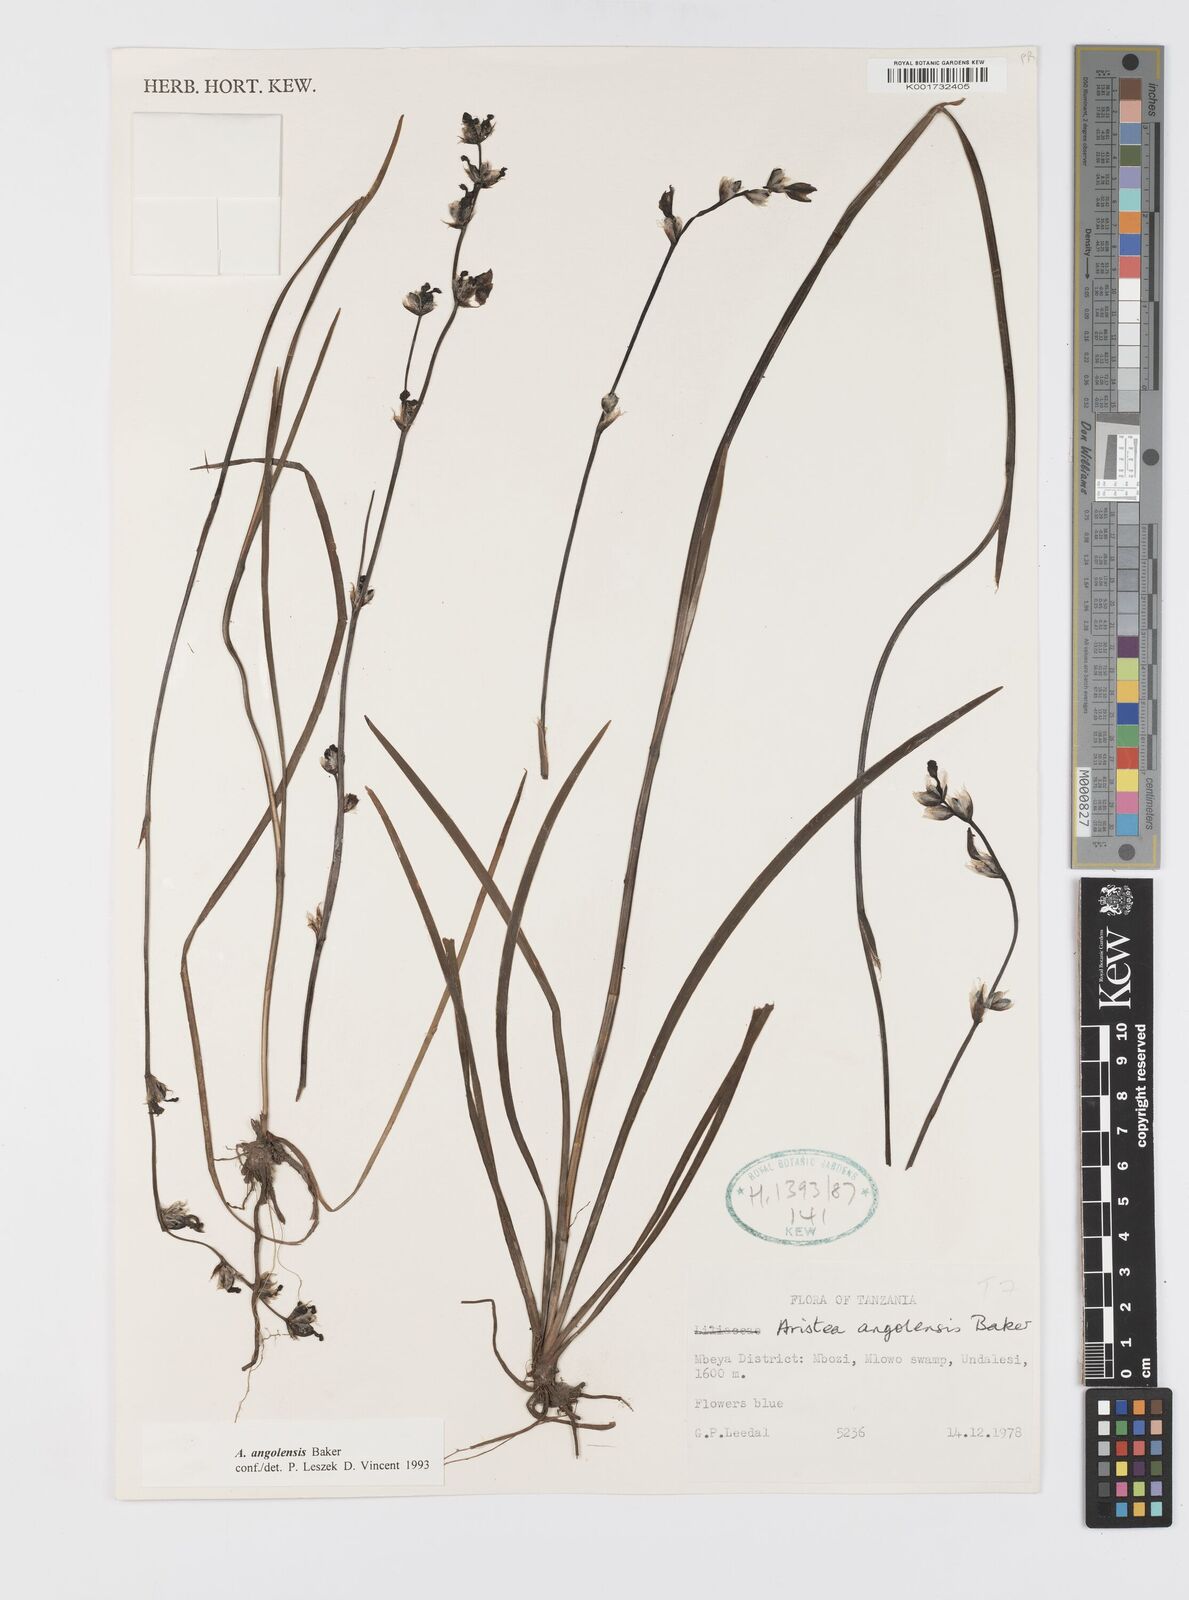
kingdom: Plantae
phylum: Tracheophyta
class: Liliopsida
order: Asparagales
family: Iridaceae
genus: Aristea
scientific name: Aristea angolensis
